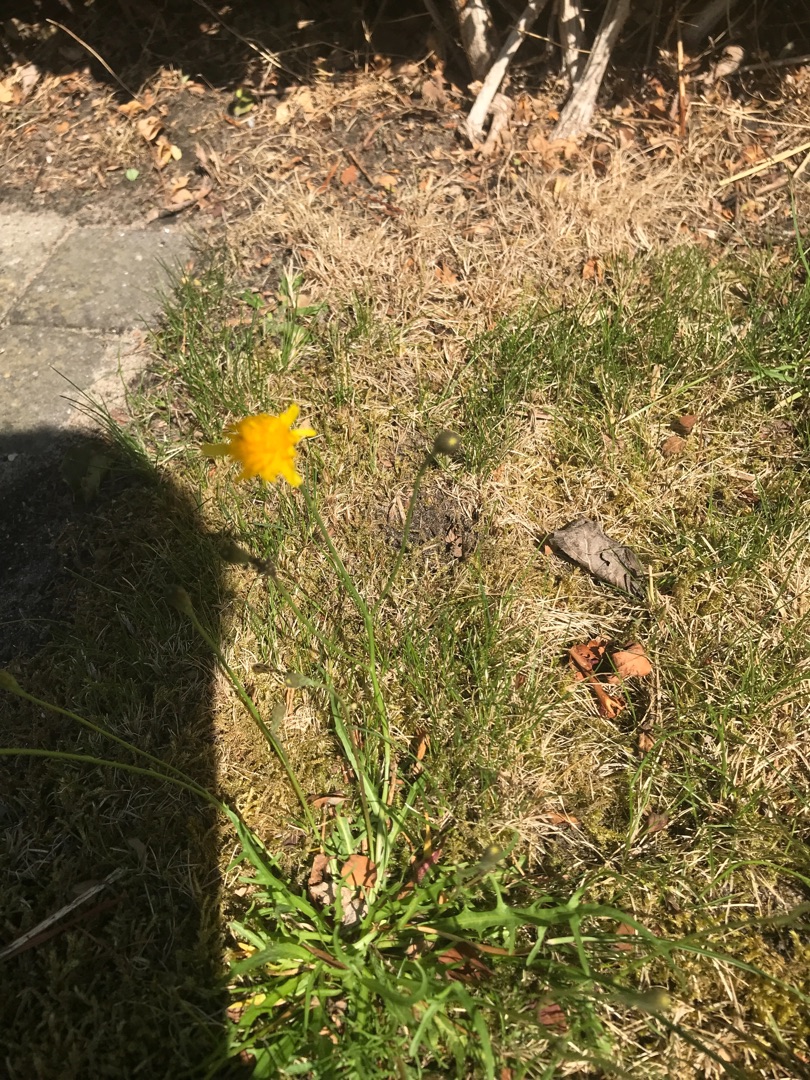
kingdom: Plantae
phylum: Tracheophyta
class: Magnoliopsida
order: Asterales
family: Asteraceae
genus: Scorzoneroides
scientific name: Scorzoneroides autumnalis
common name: Høst-borst
